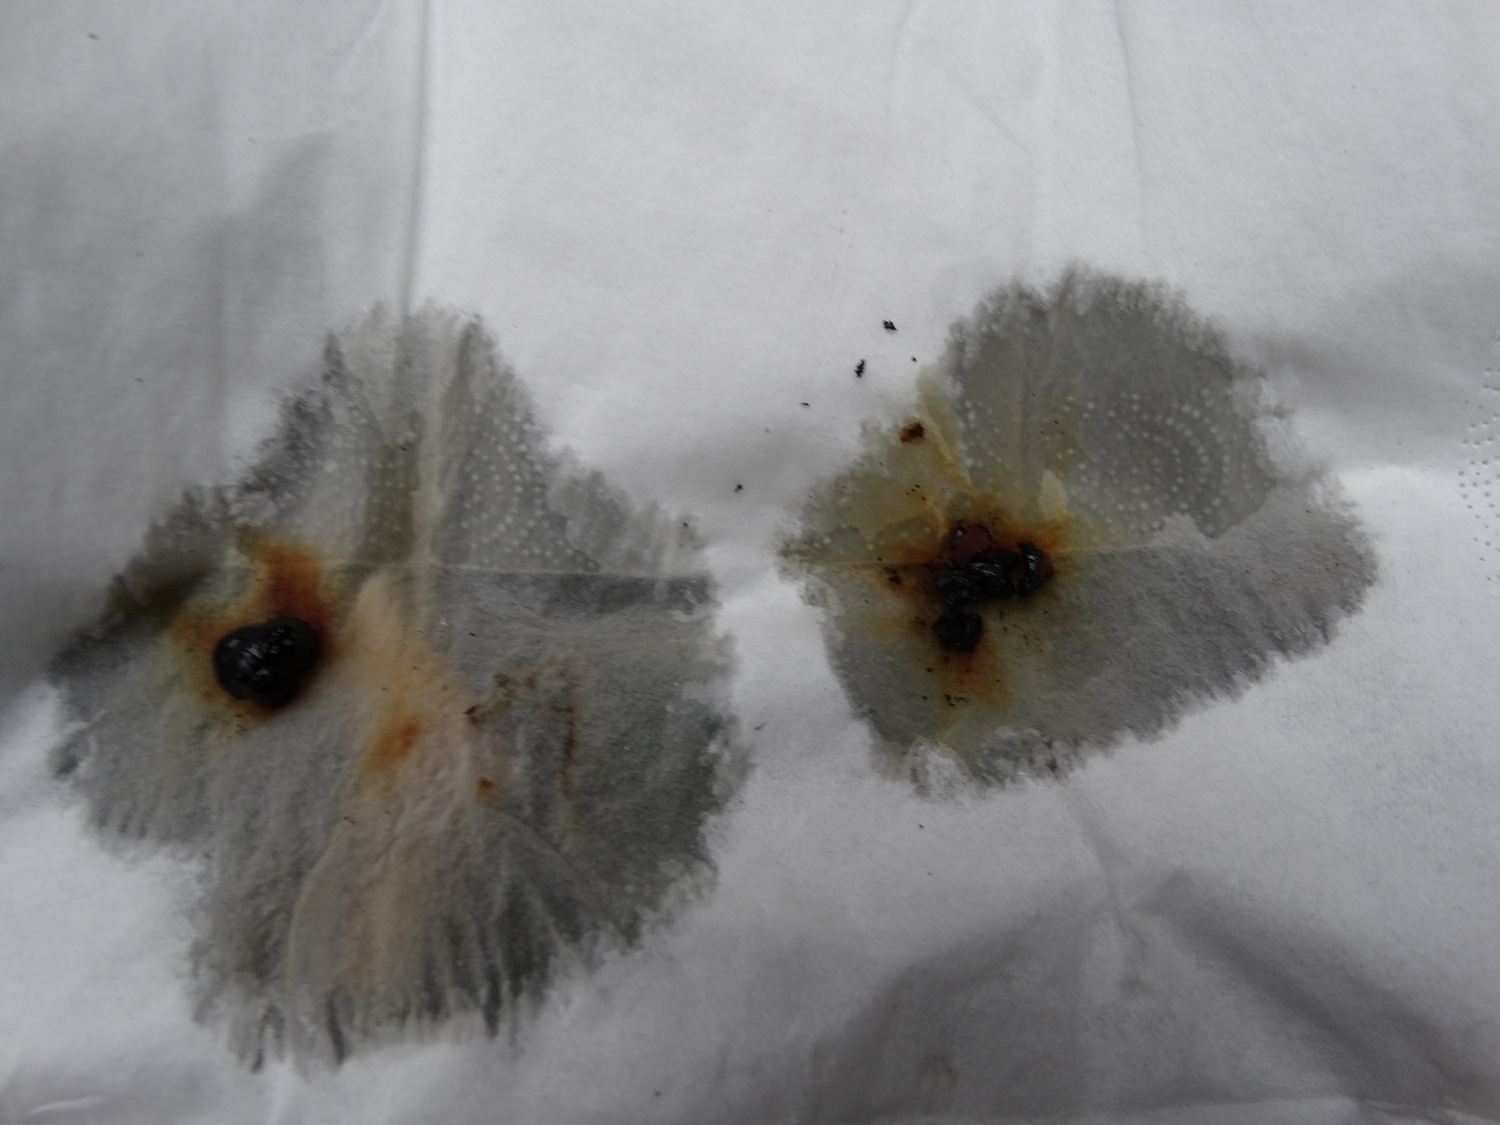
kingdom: Fungi
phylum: Ascomycota
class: Sordariomycetes
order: Xylariales
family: Hypoxylaceae
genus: Hypoxylon
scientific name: Hypoxylon howeanum
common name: halvkugleformet kulbær
